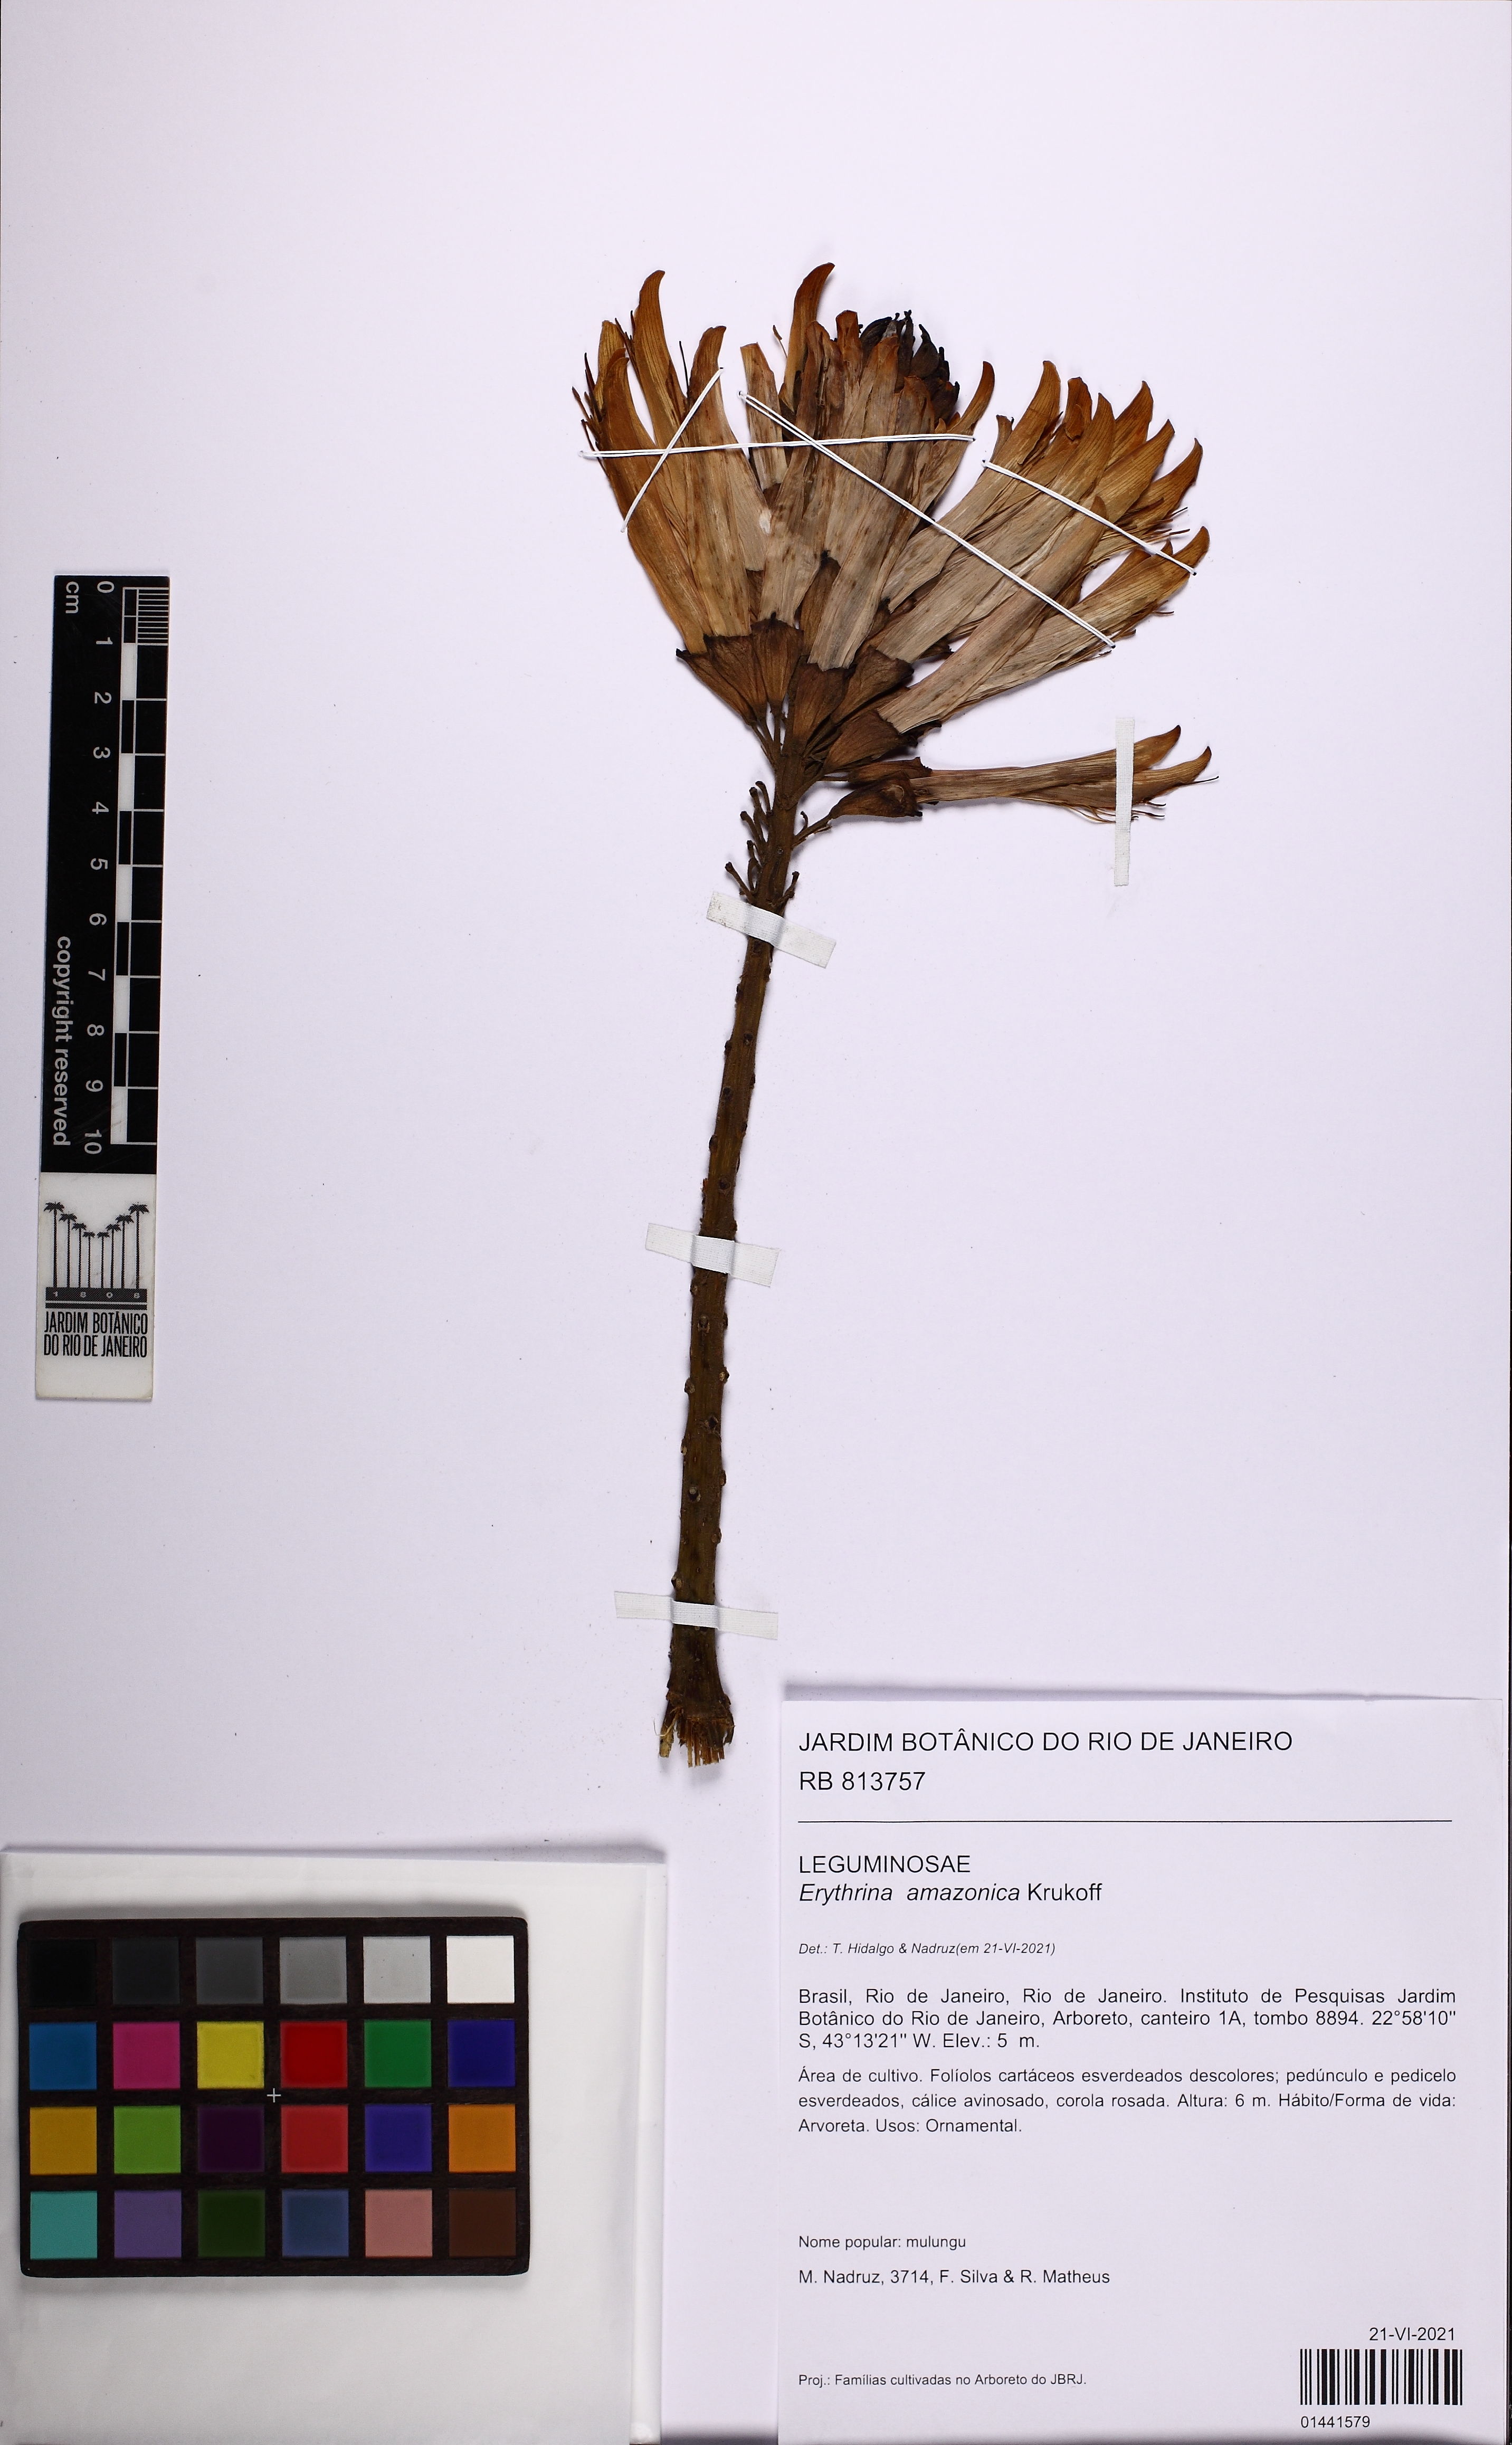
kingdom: Plantae
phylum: Tracheophyta
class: Magnoliopsida
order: Fabales
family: Fabaceae
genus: Erythrina
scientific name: Erythrina amazonica
